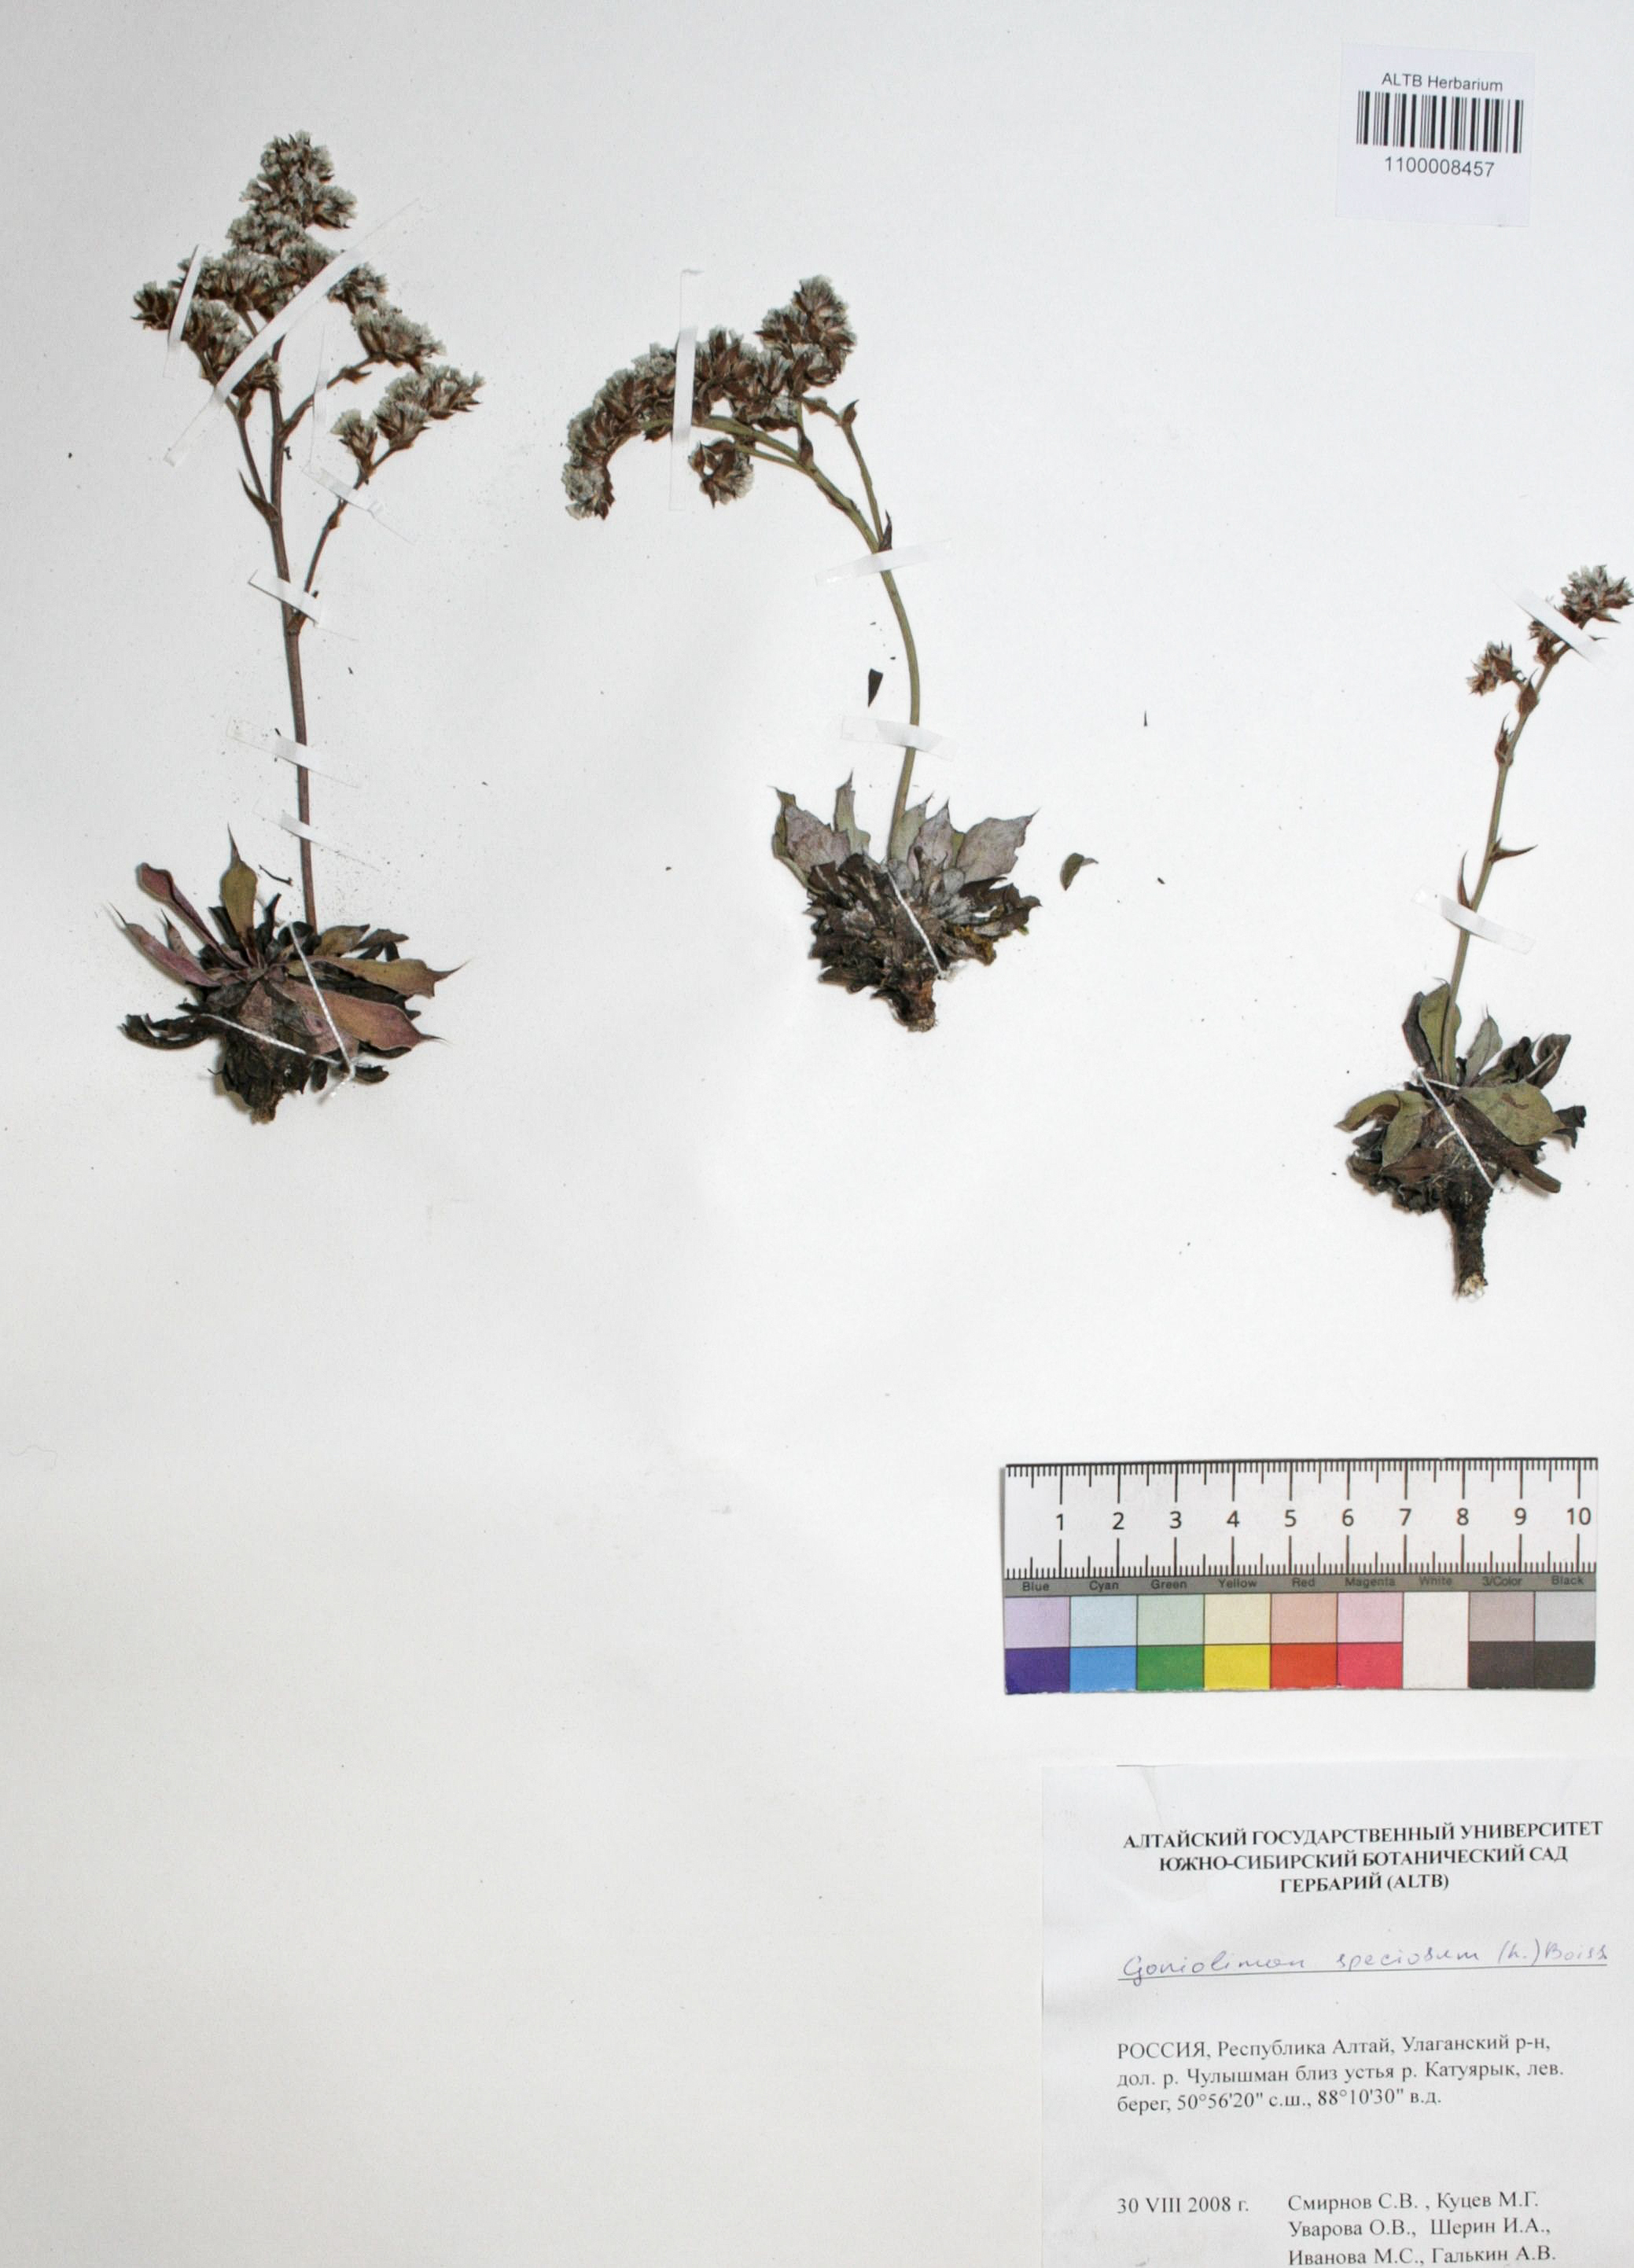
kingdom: Plantae
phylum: Tracheophyta
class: Magnoliopsida
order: Caryophyllales
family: Plumbaginaceae
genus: Goniolimon
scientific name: Goniolimon speciosum
